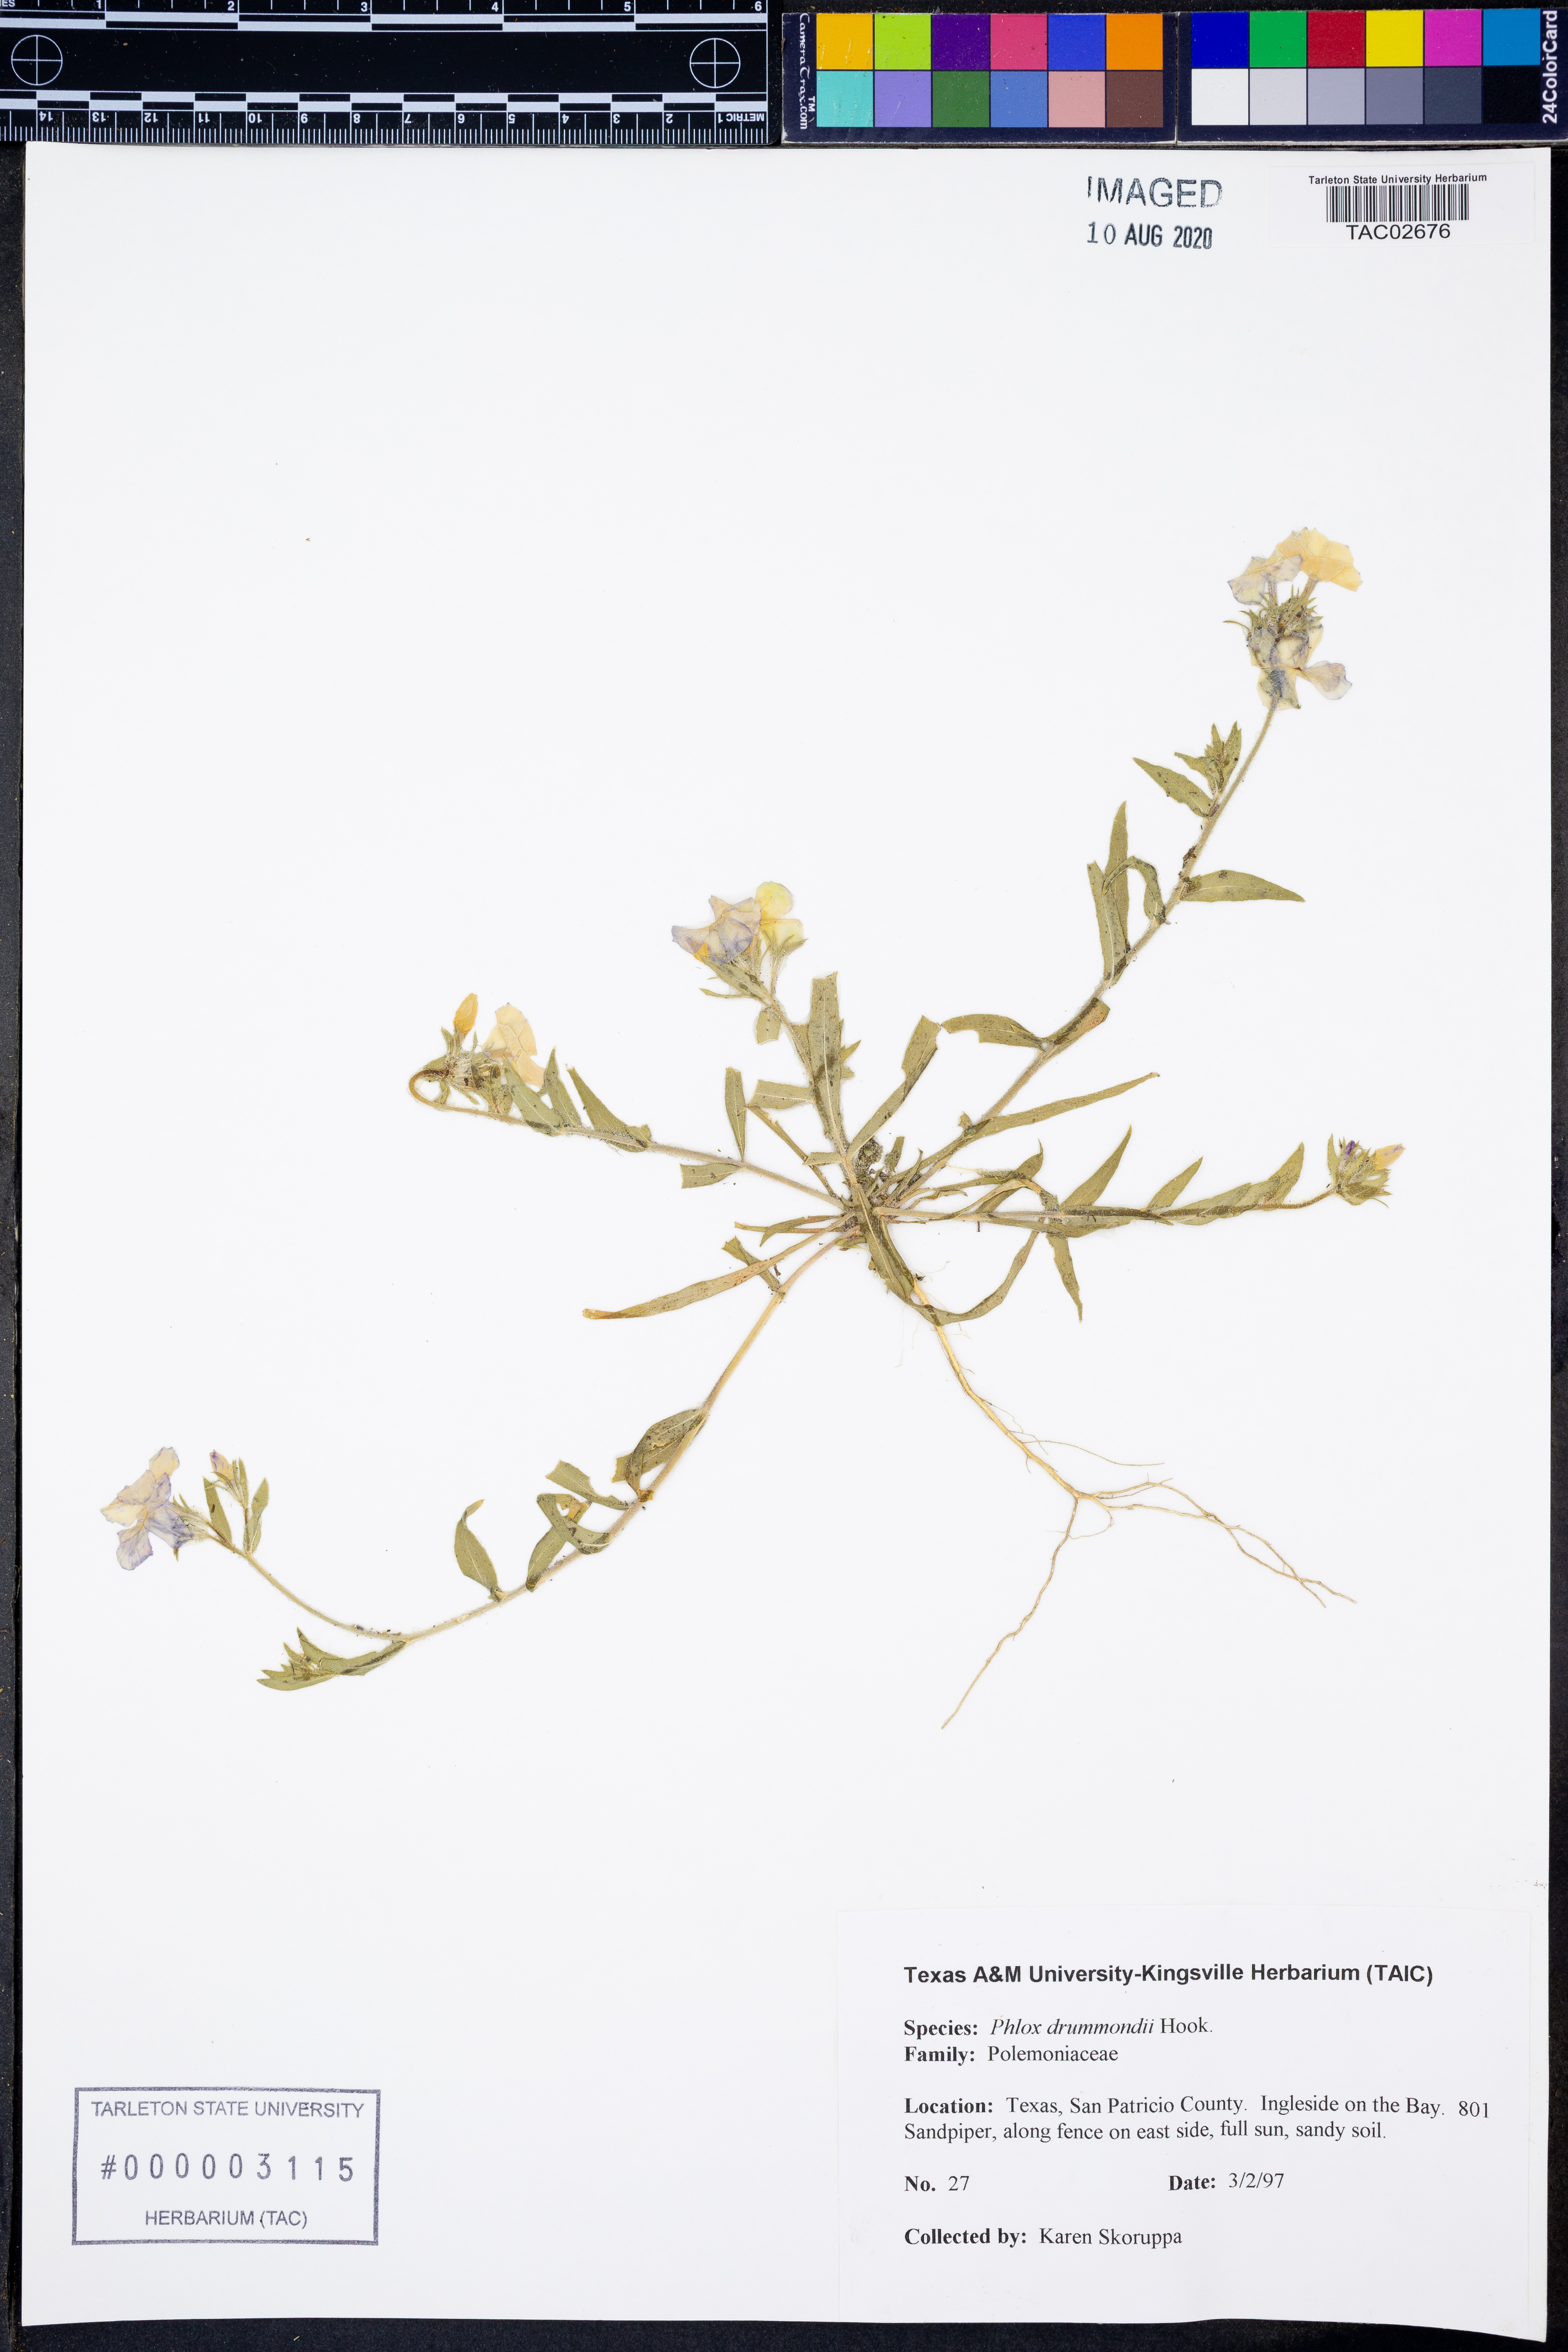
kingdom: Plantae
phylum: Tracheophyta
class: Magnoliopsida
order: Ericales
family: Polemoniaceae
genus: Phlox
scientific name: Phlox drummondii
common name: Drummond's phlox
